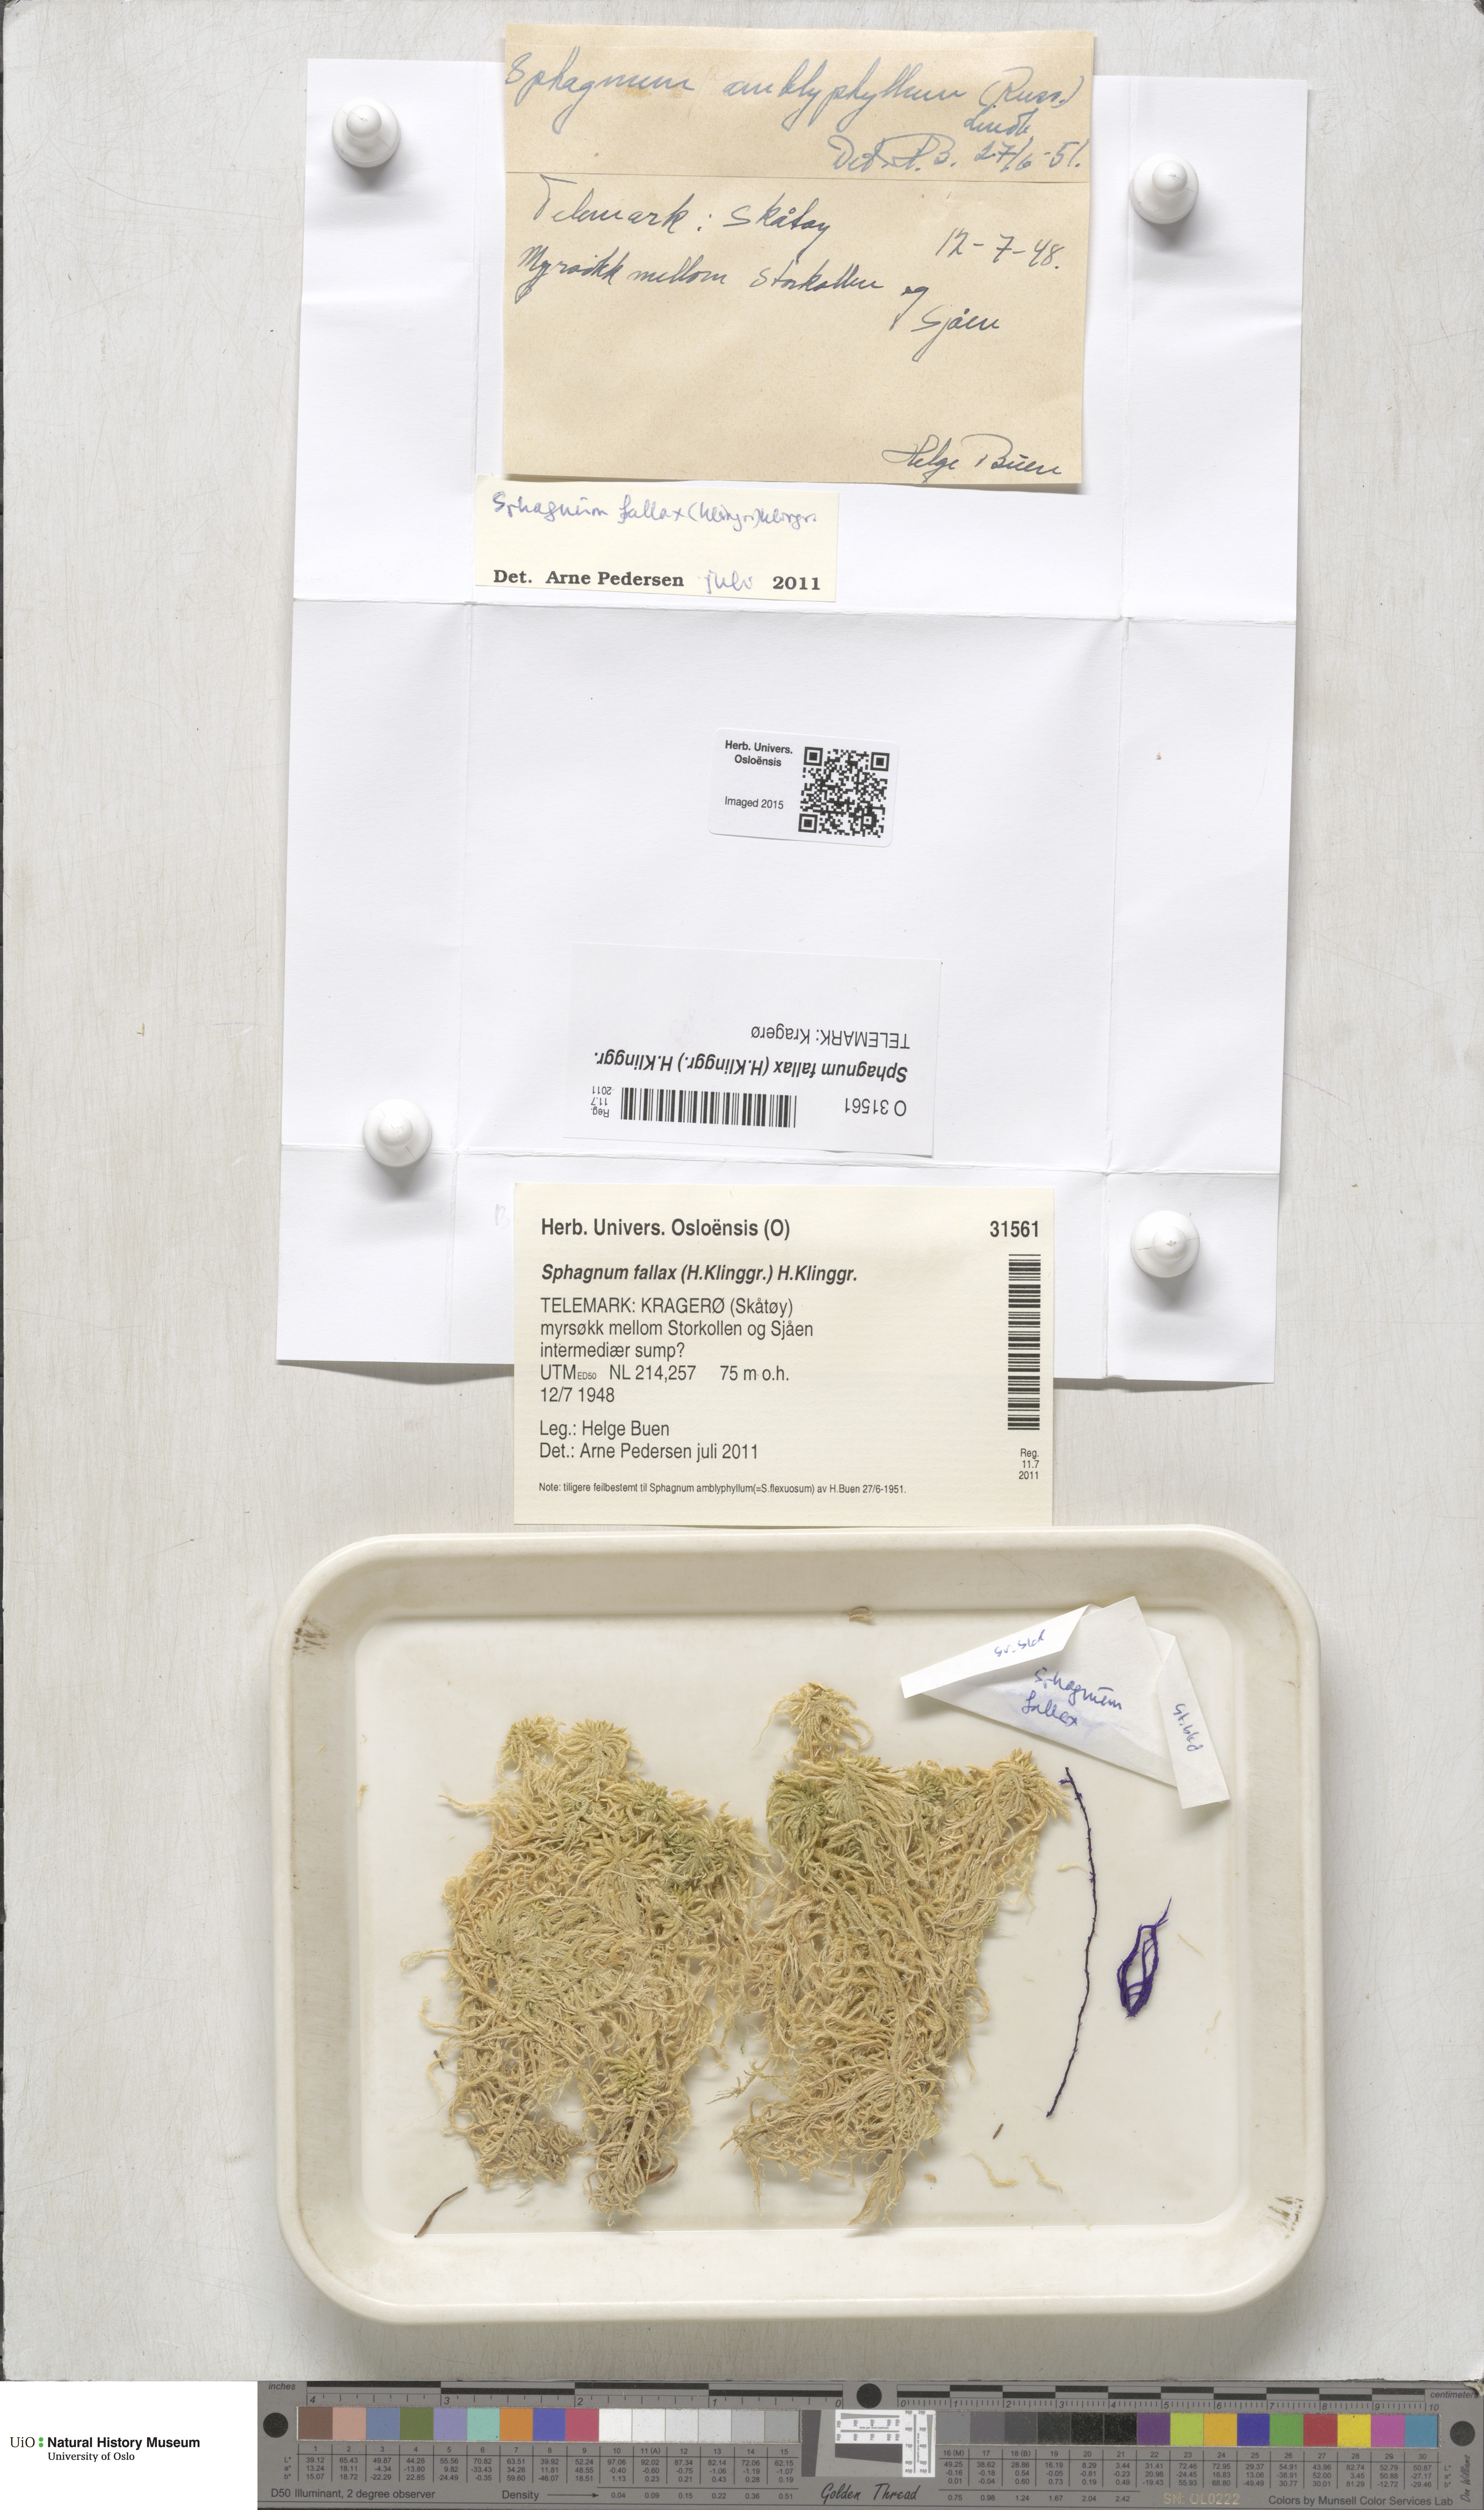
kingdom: Plantae
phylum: Bryophyta
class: Sphagnopsida
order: Sphagnales
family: Sphagnaceae
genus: Sphagnum
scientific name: Sphagnum fallax
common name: Flat-top peat moss
